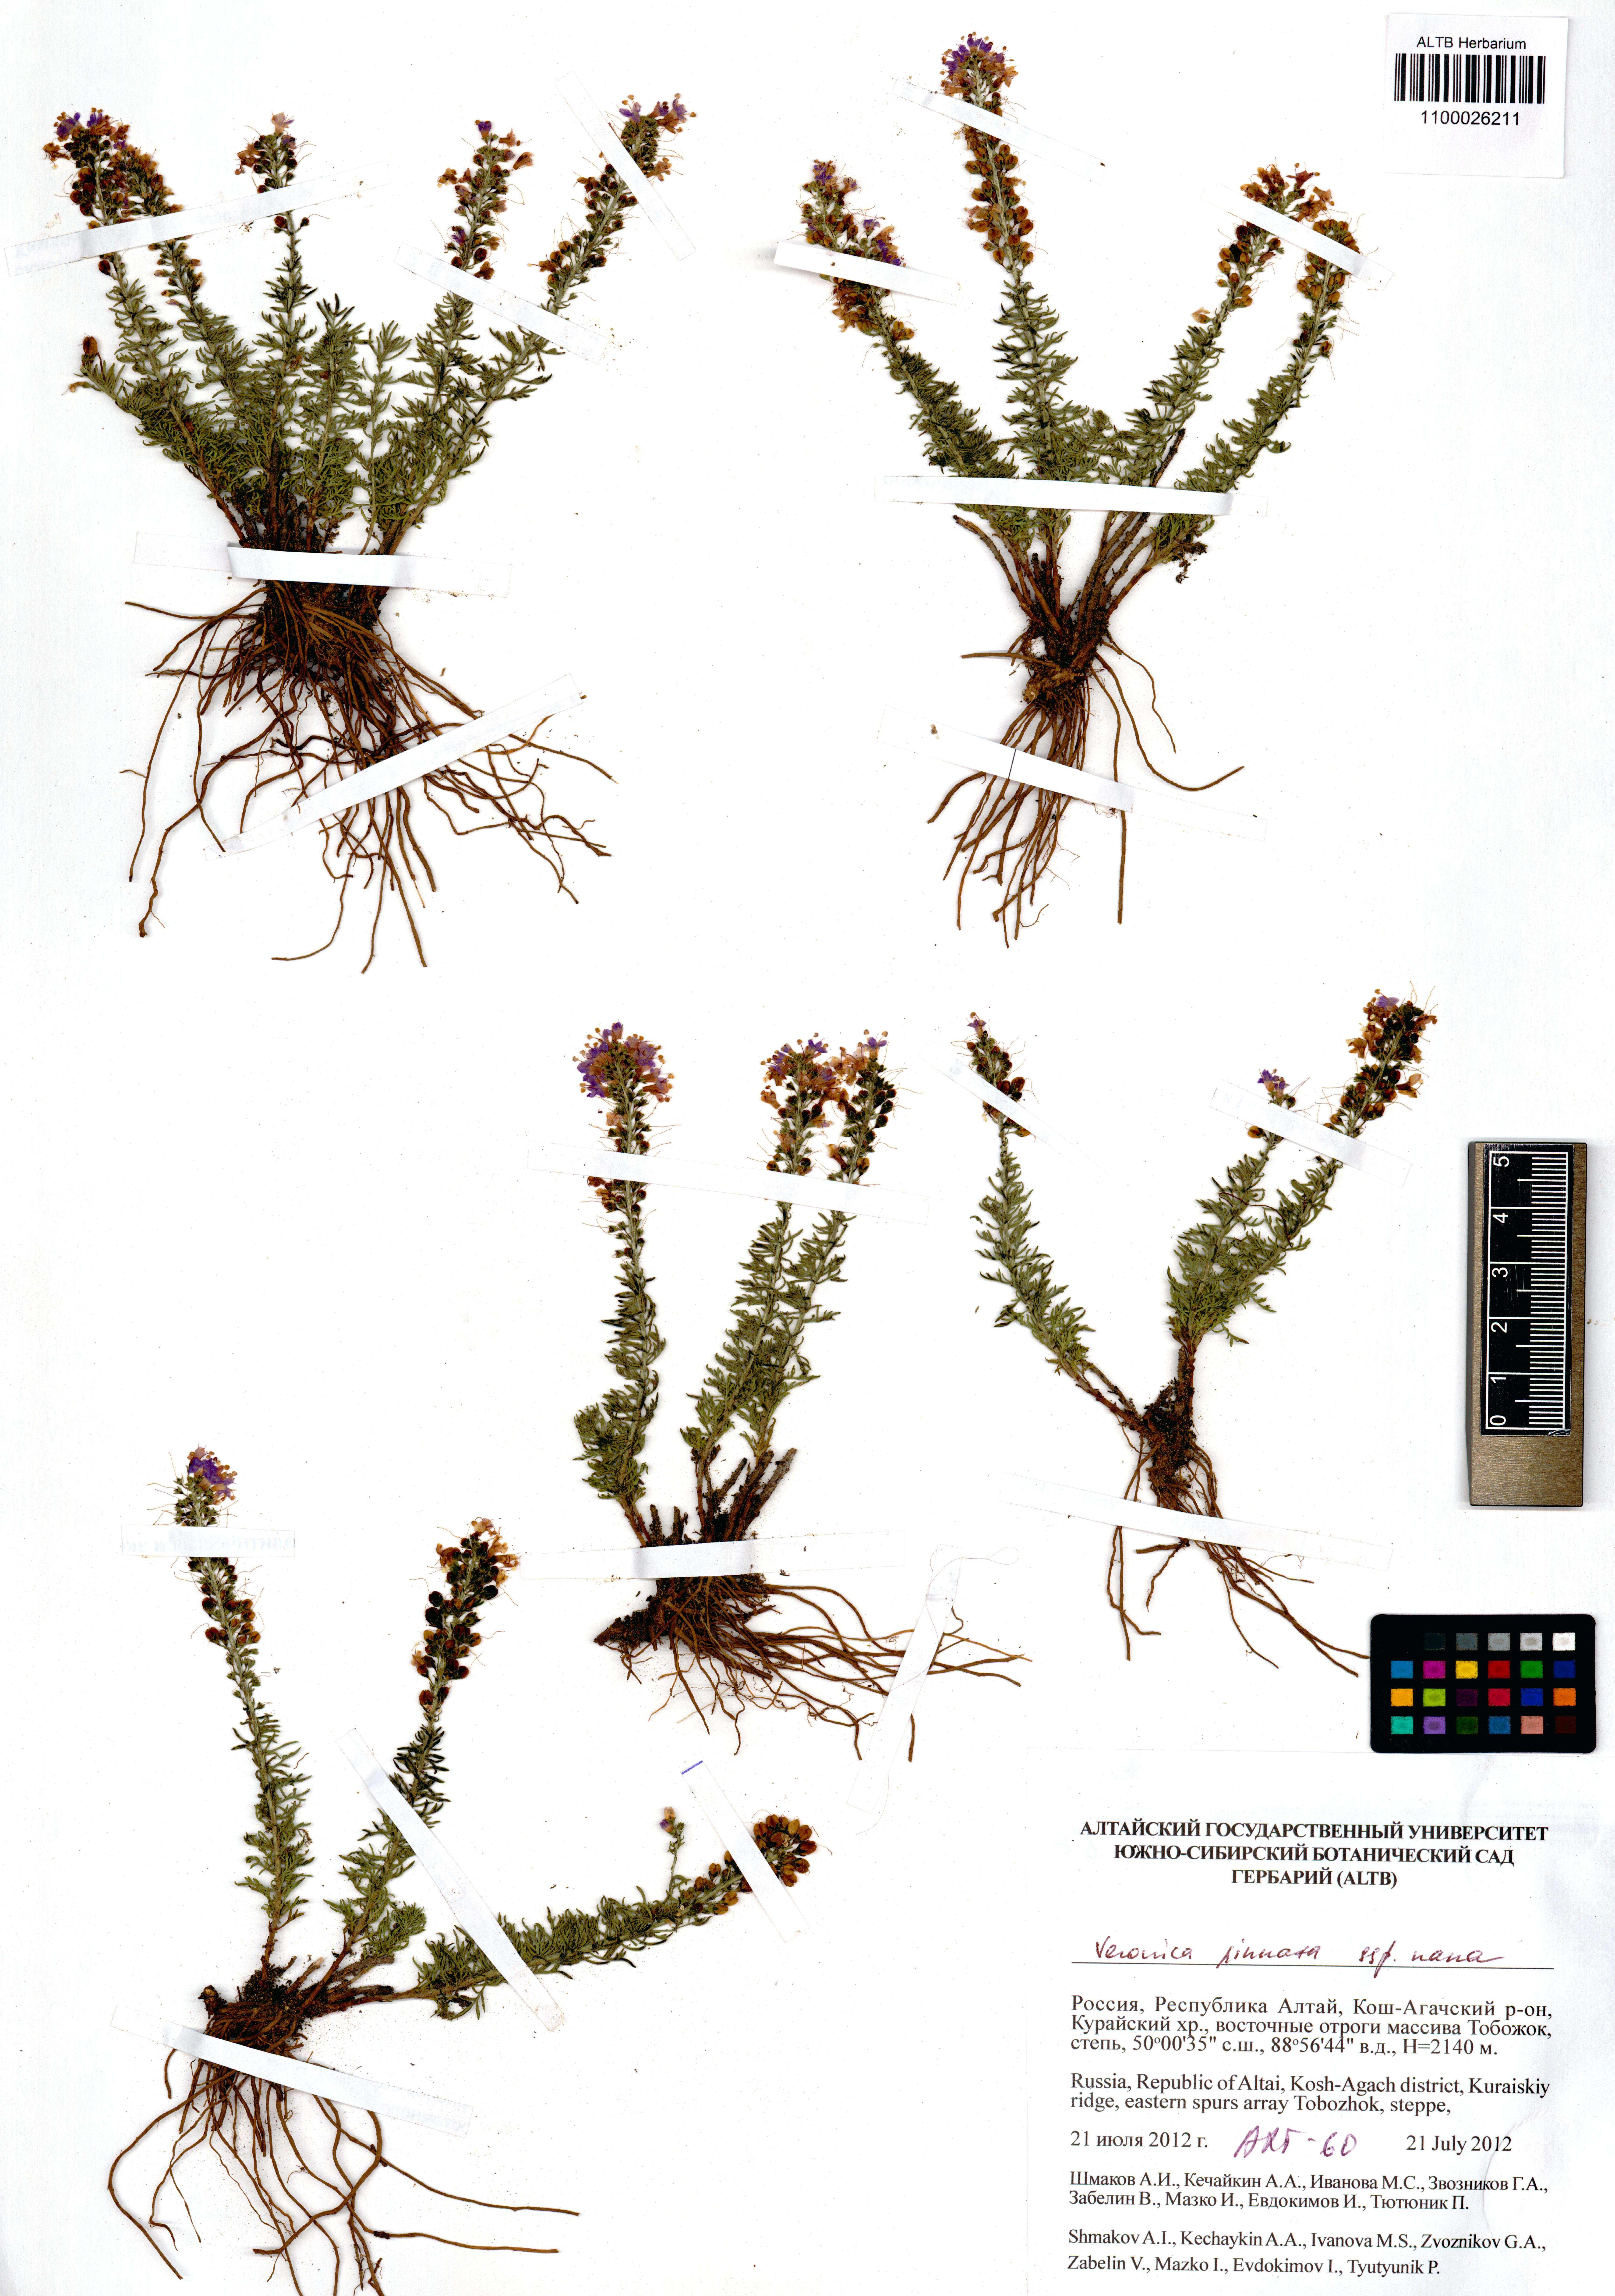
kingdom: Plantae
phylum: Tracheophyta
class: Magnoliopsida
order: Lamiales
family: Plantaginaceae
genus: Veronica
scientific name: Veronica pinnata
